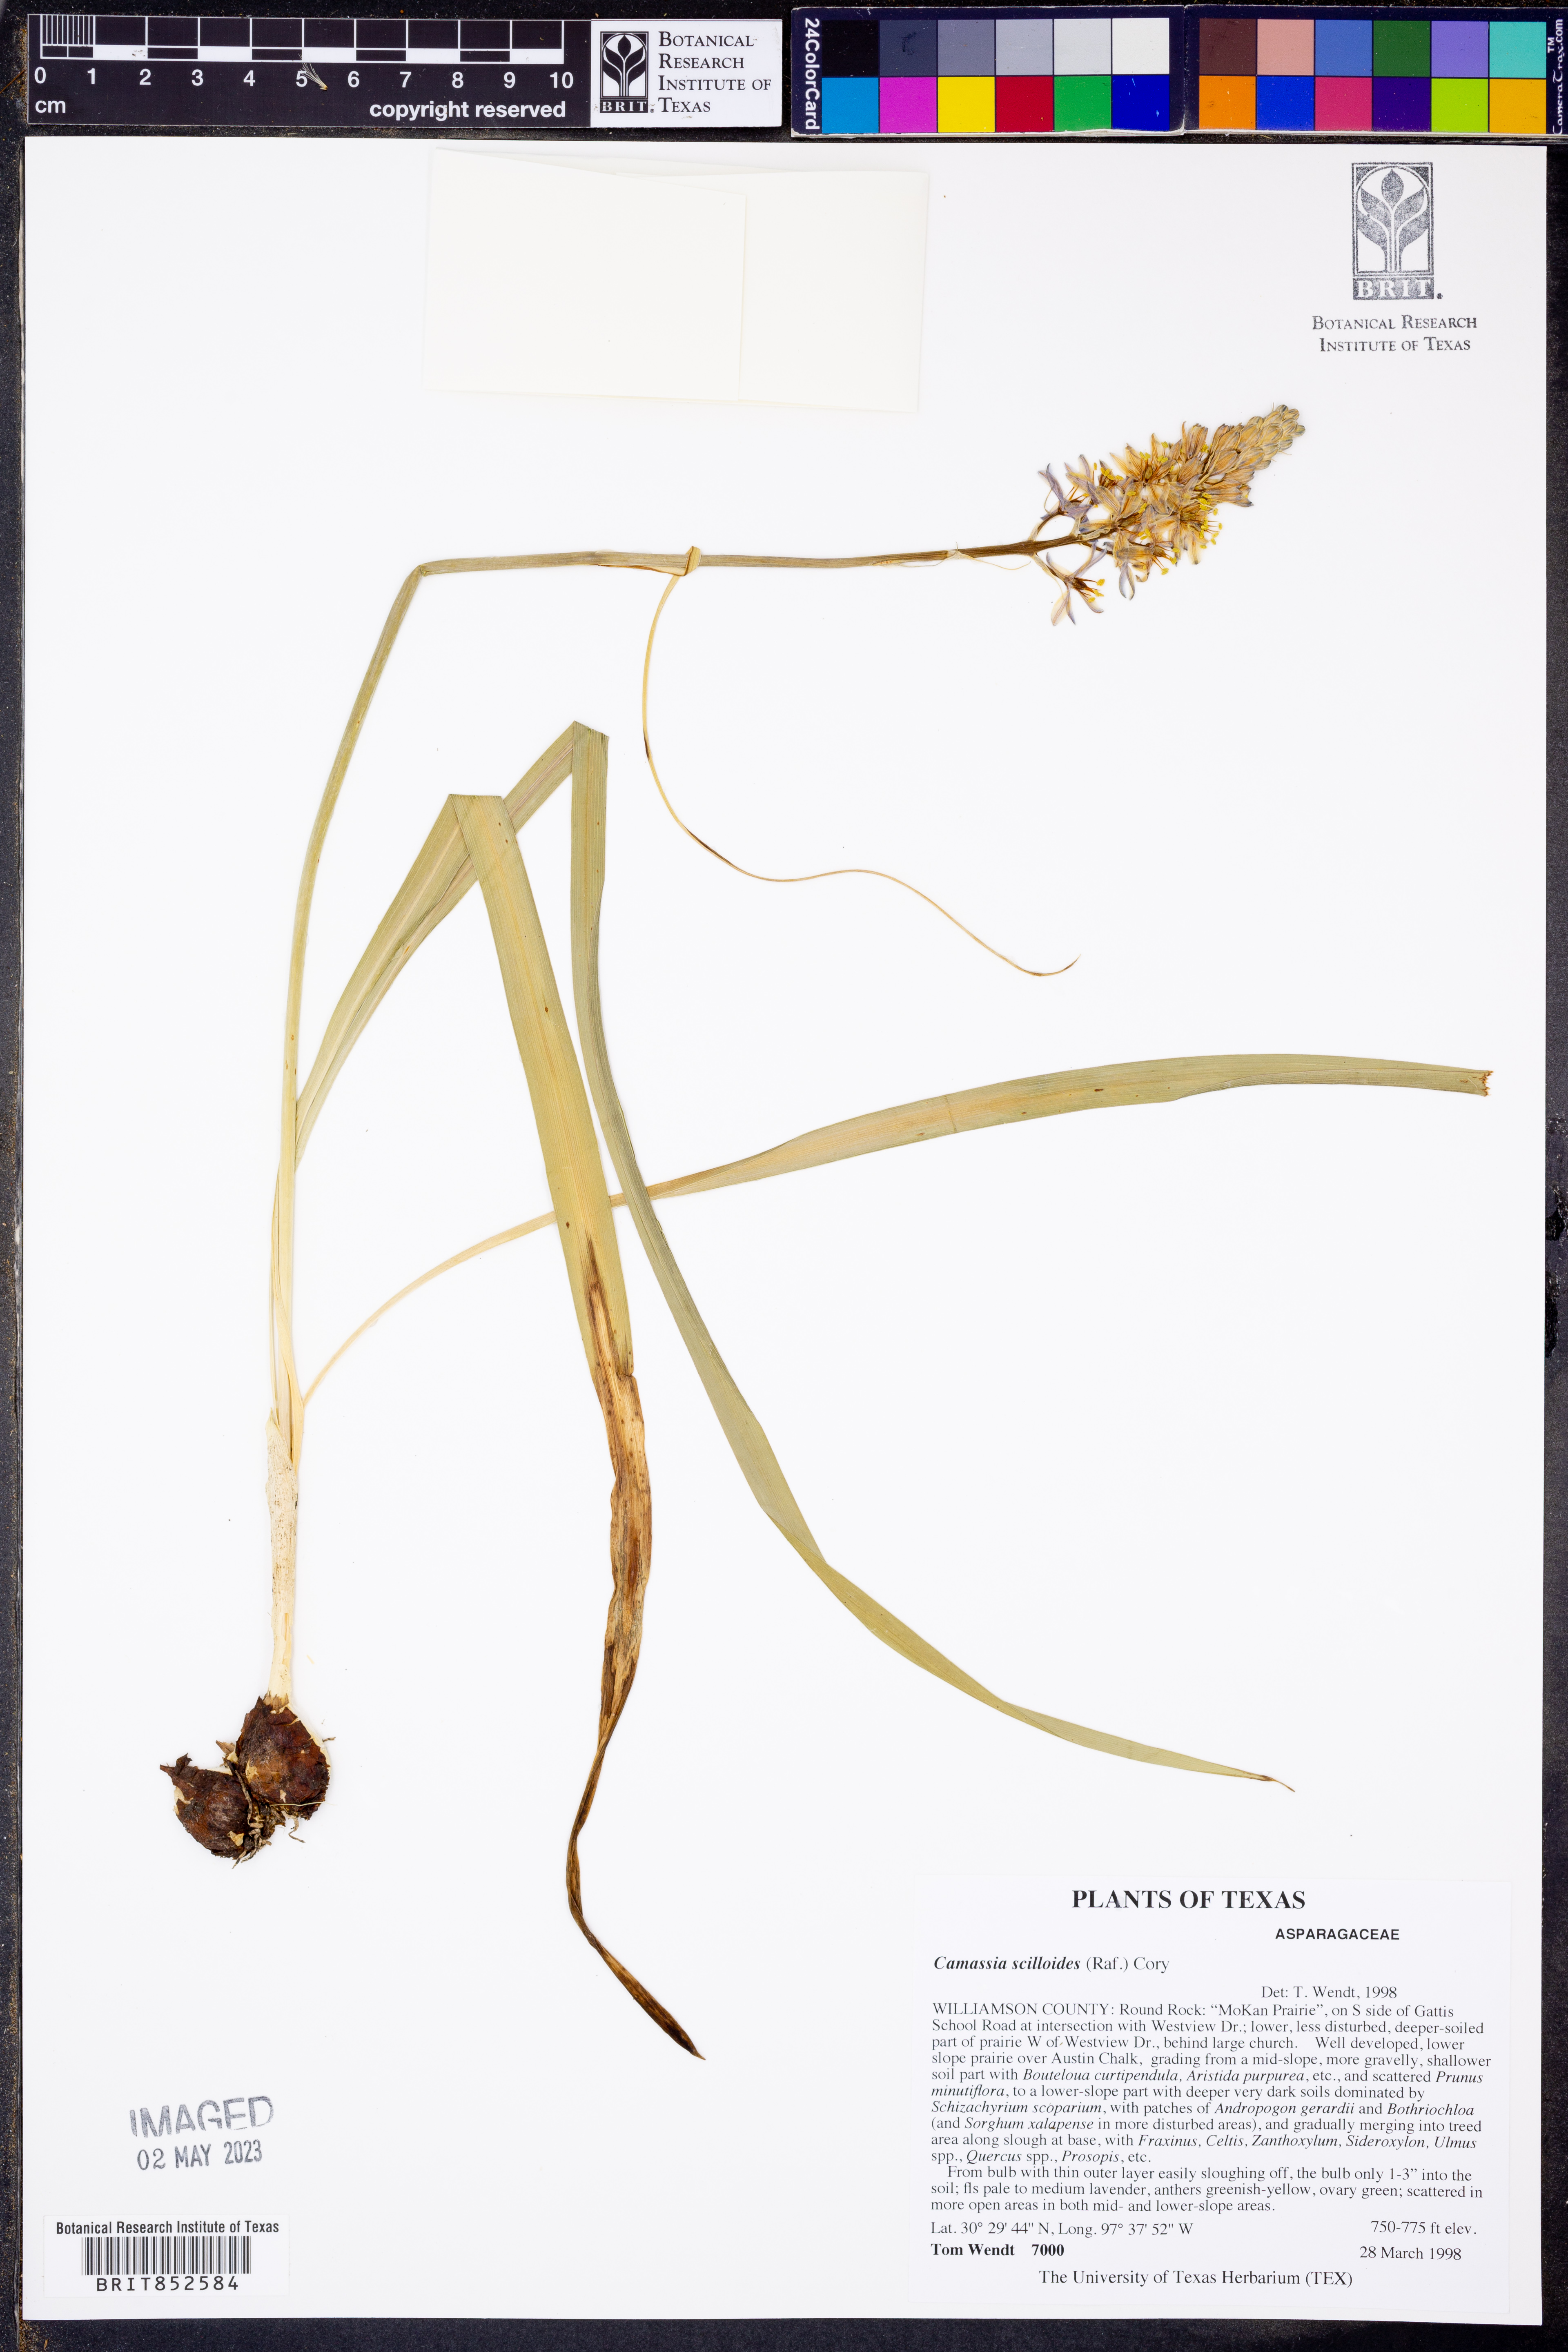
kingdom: Plantae
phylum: Tracheophyta
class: Liliopsida
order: Asparagales
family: Asparagaceae
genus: Camassia
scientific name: Camassia scilloides
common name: Wild hyacinth
